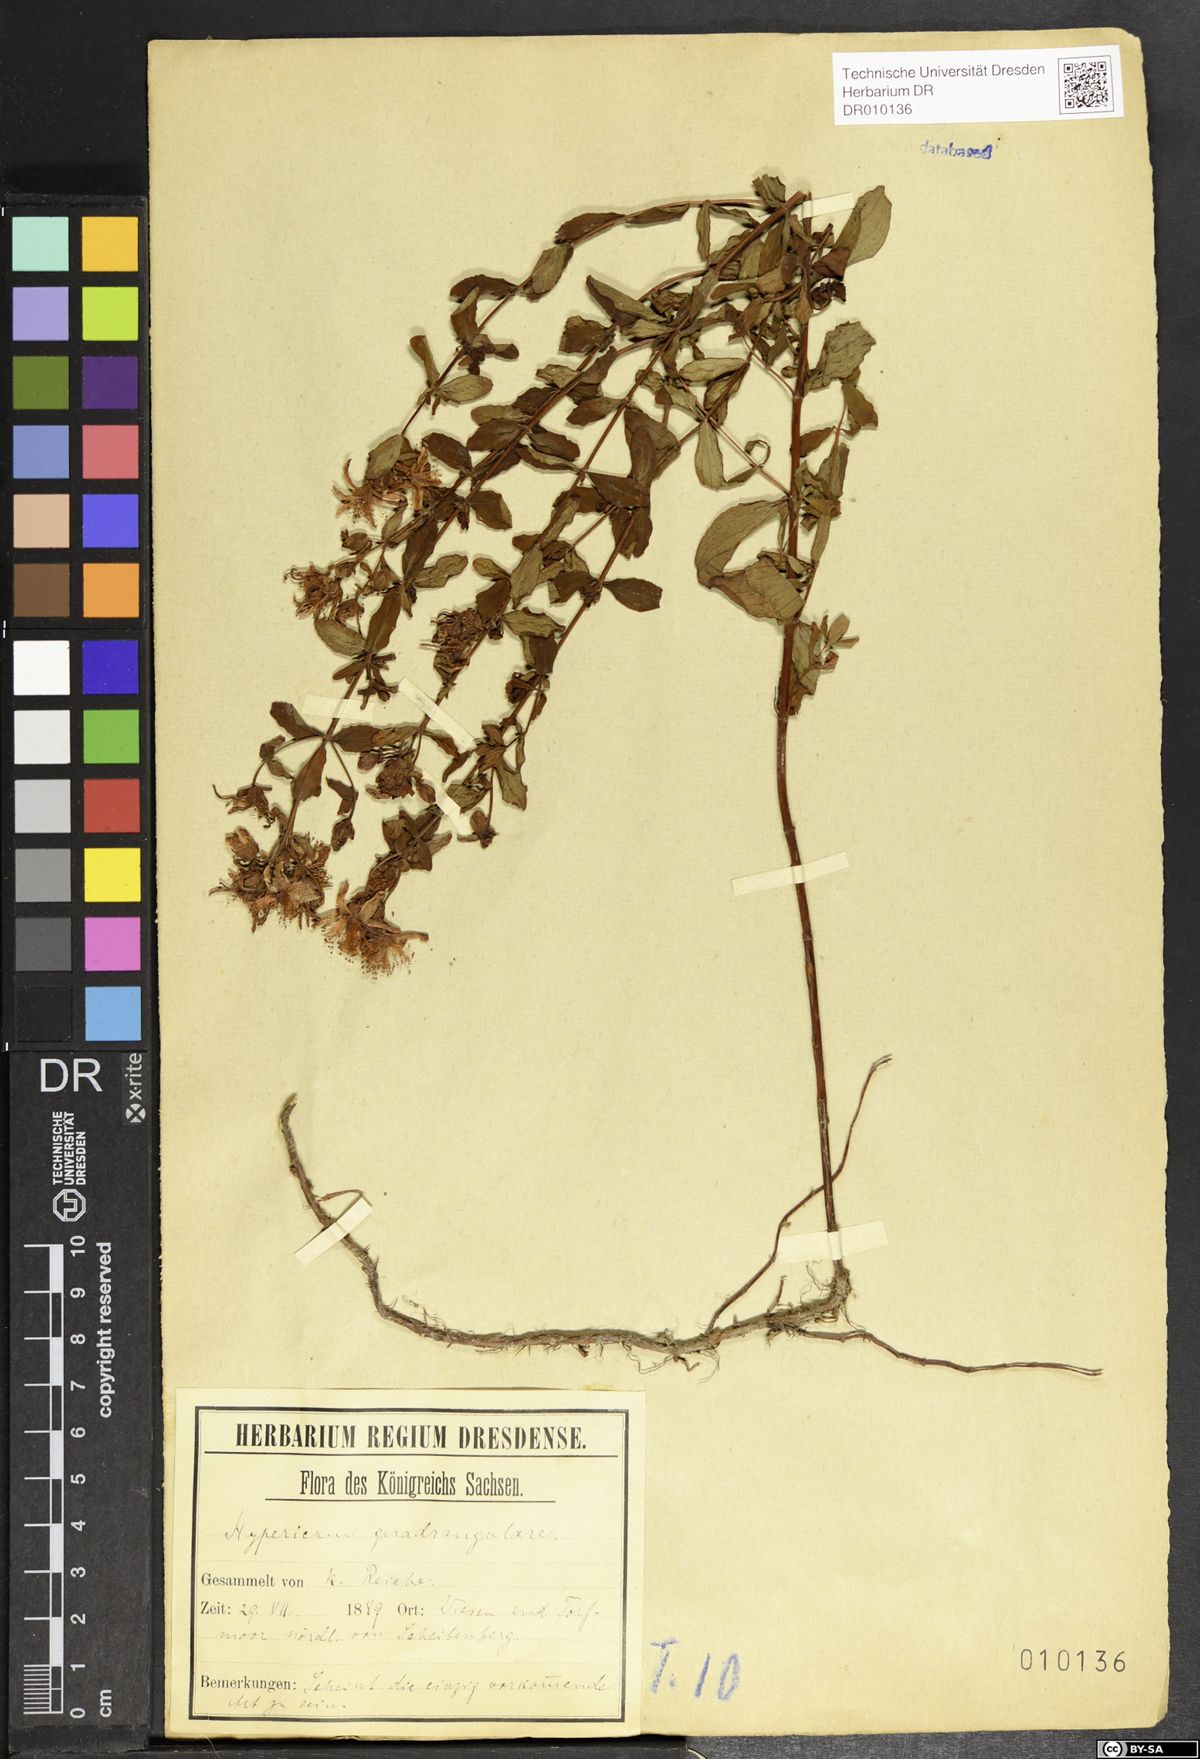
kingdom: Plantae
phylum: Tracheophyta
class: Magnoliopsida
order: Malpighiales
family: Hypericaceae
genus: Hypericum
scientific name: Hypericum maculatum
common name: Imperforate st. john's-wort
